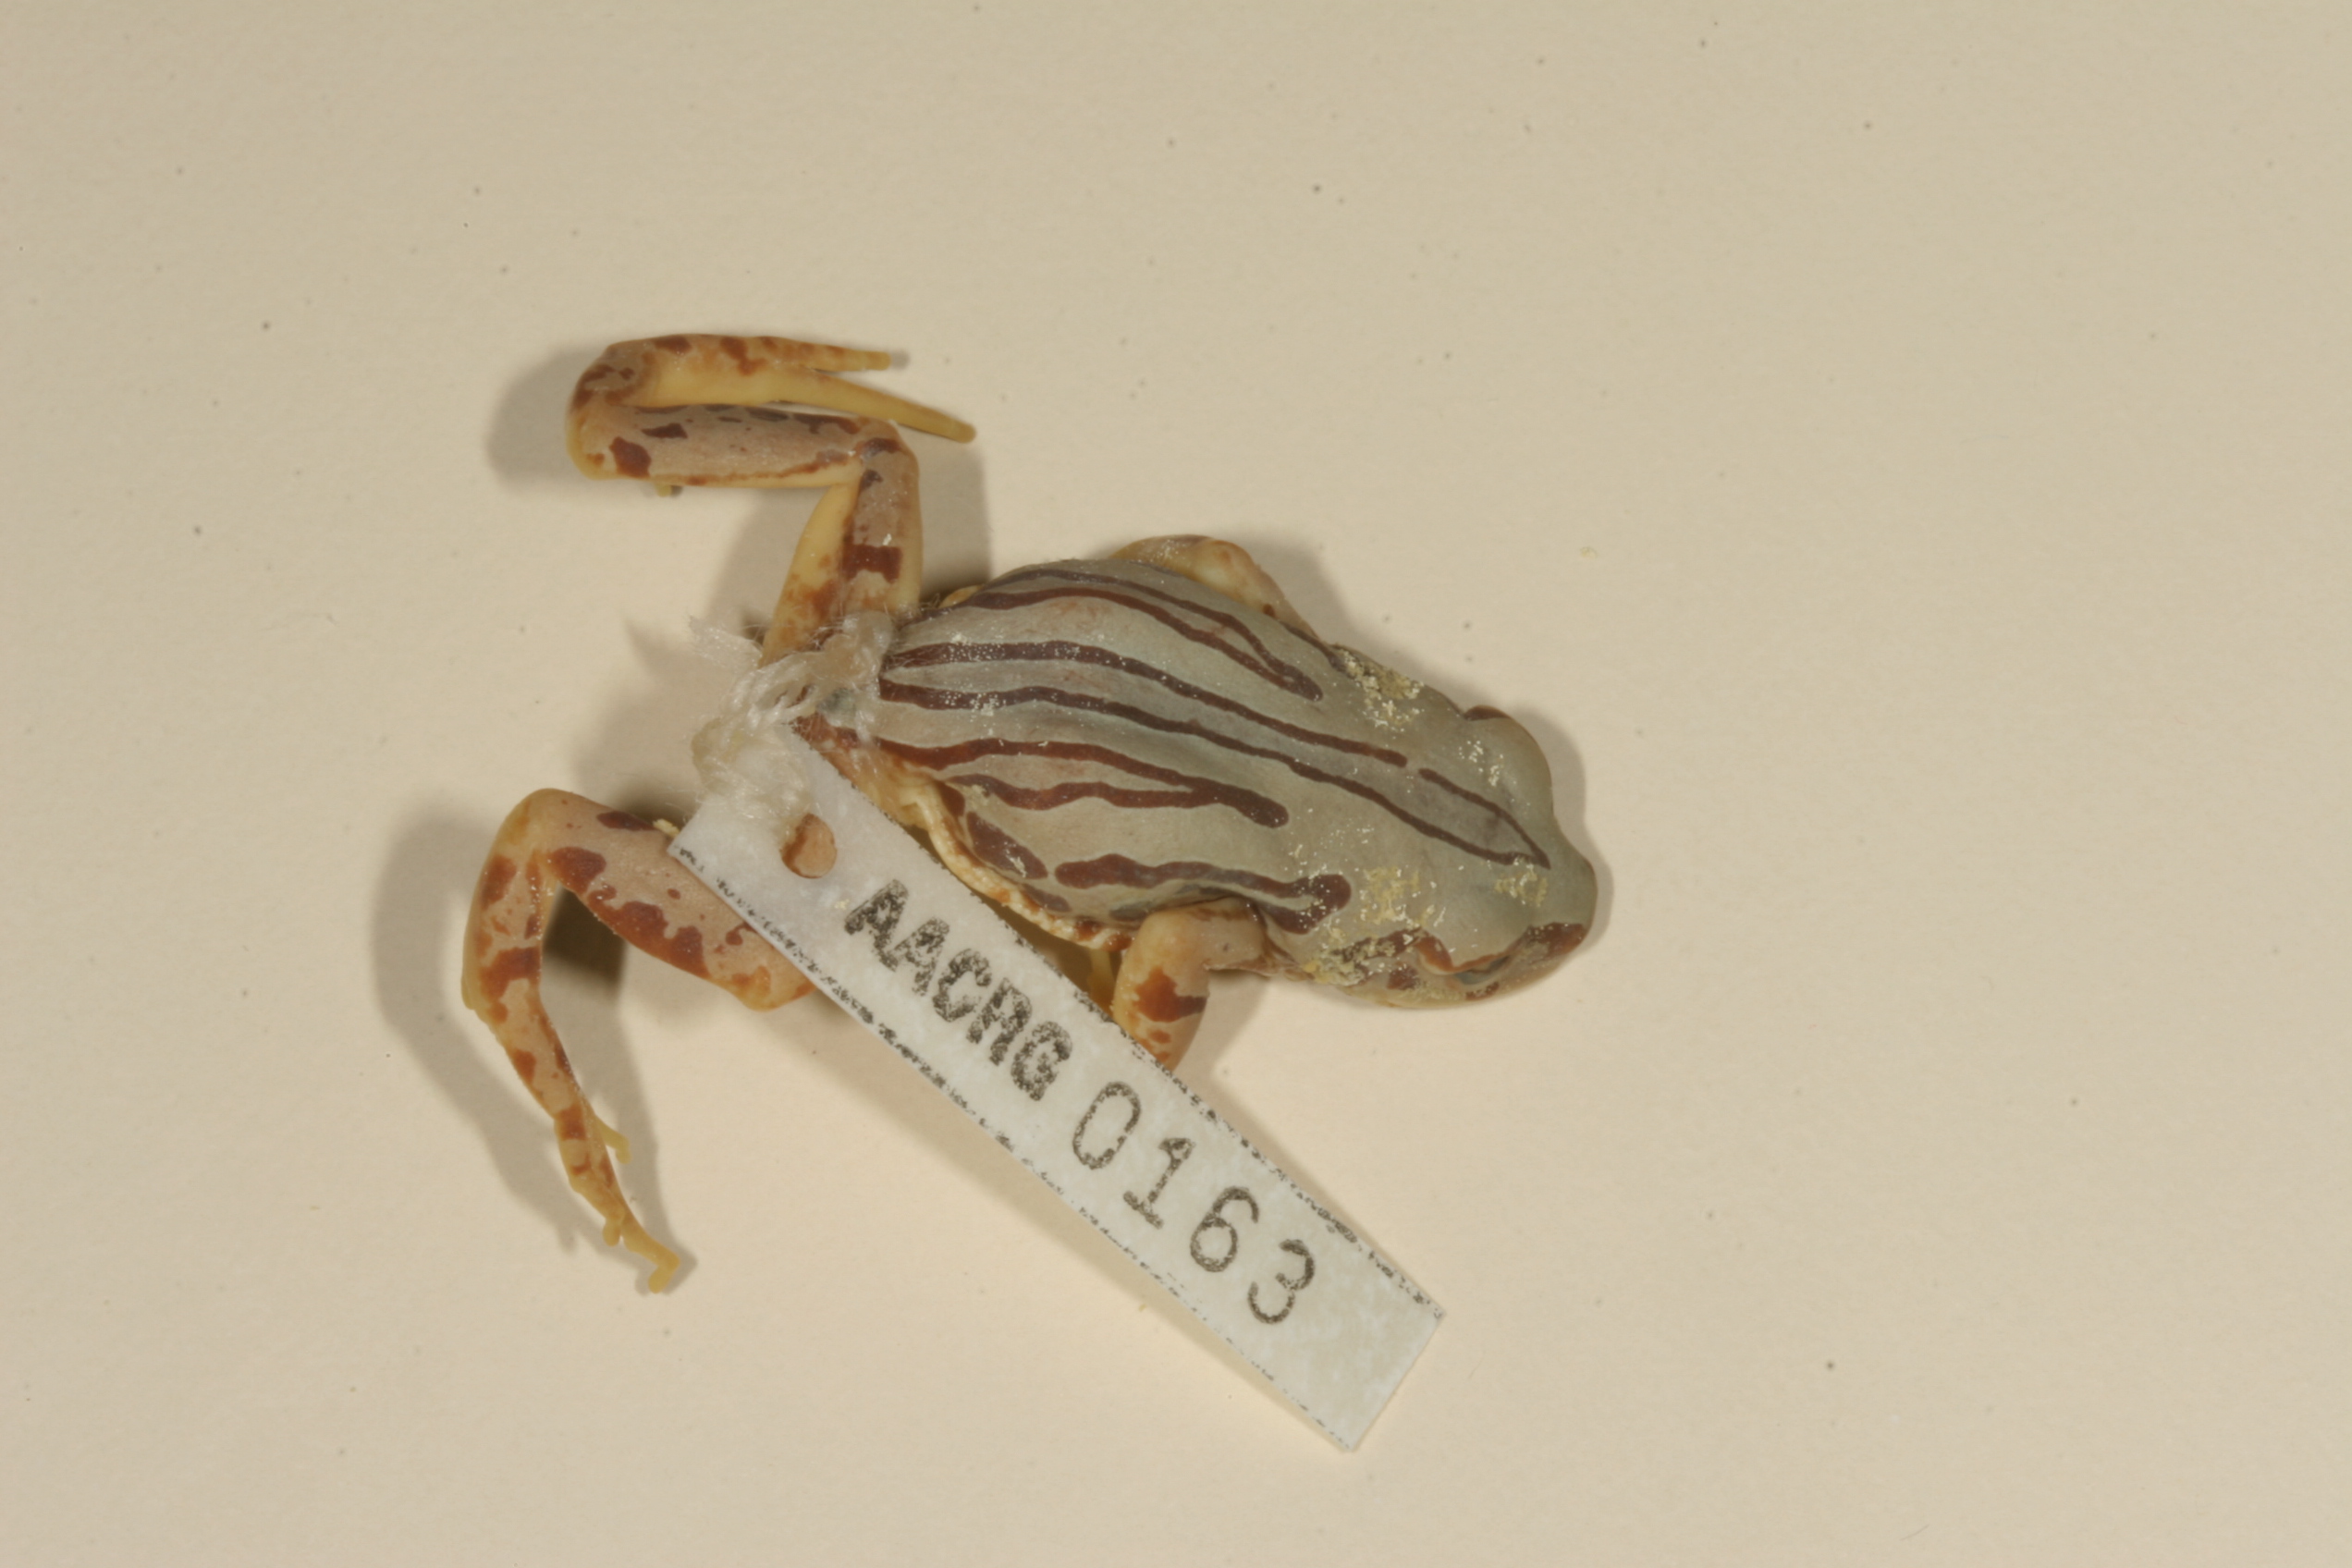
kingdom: Animalia
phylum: Chordata
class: Amphibia
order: Anura
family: Hyperoliidae
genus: Semnodactylus
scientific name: Semnodactylus wealii
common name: Weal's frog
